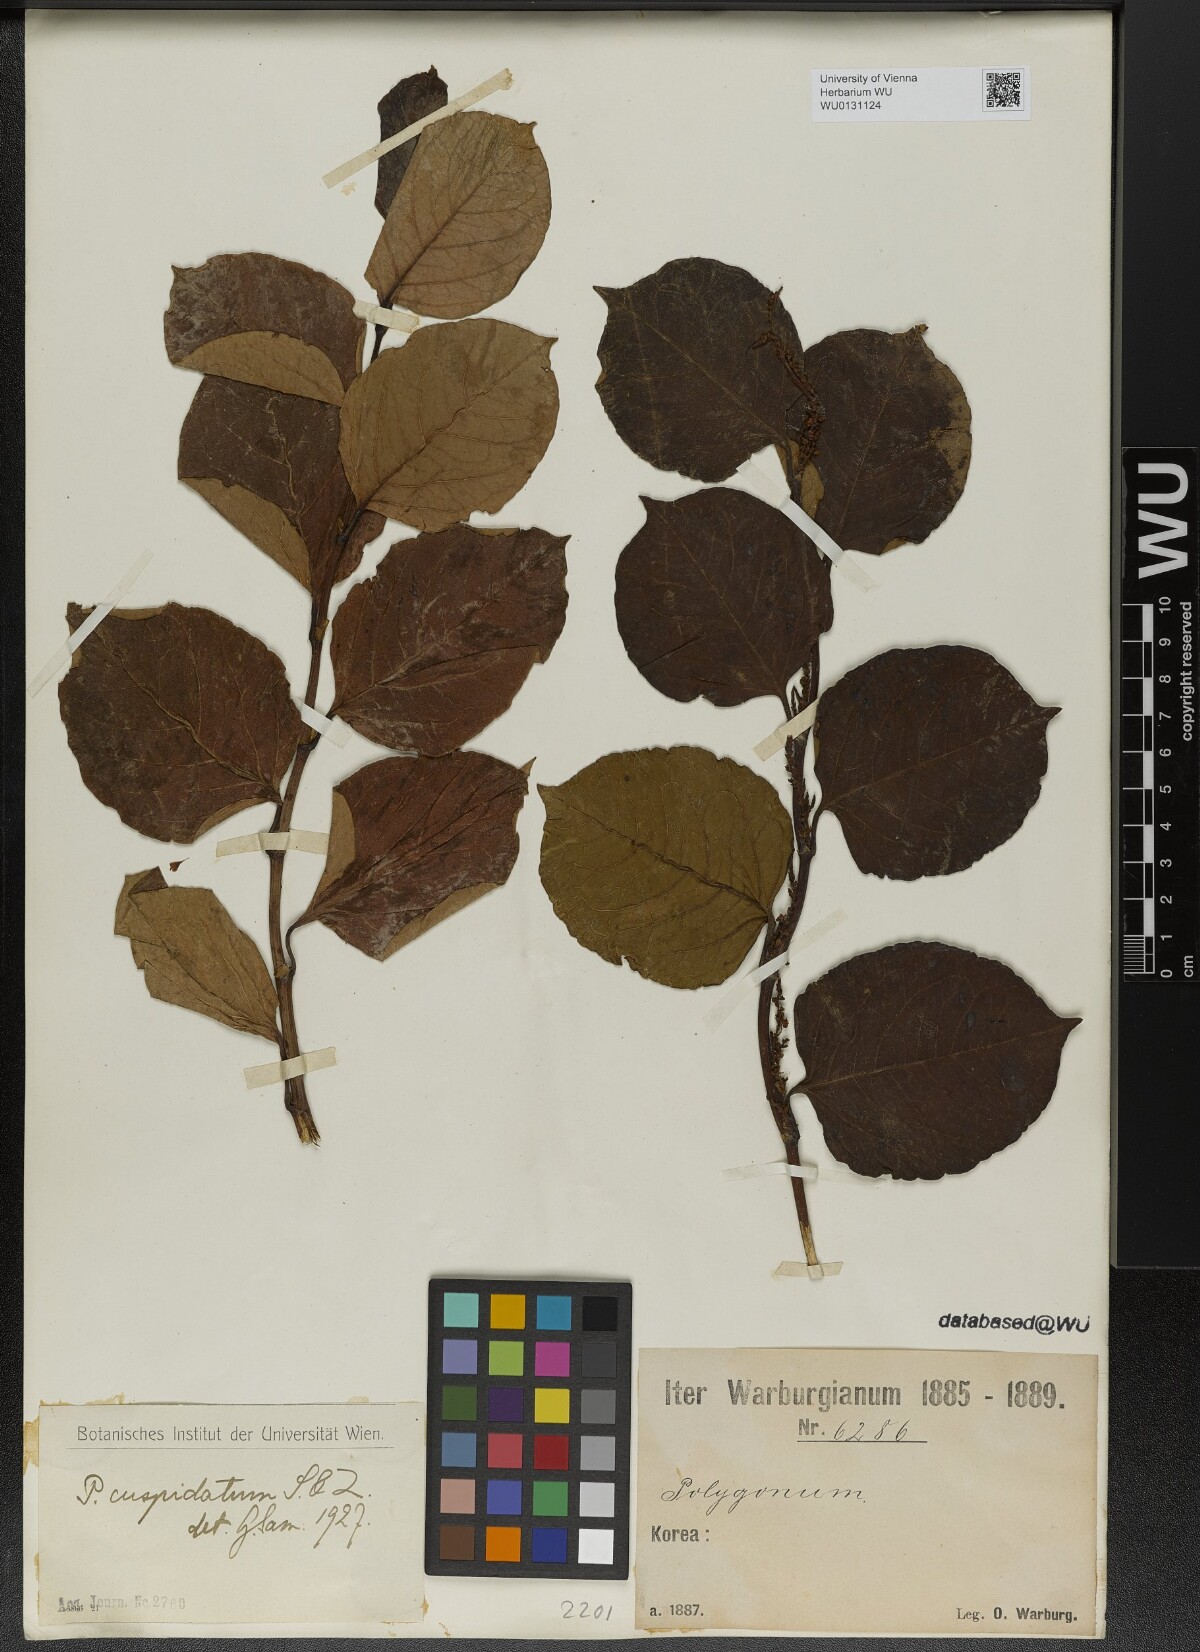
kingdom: Plantae
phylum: Tracheophyta
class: Magnoliopsida
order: Caryophyllales
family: Polygonaceae
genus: Reynoutria
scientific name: Reynoutria japonica
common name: Japanese knotweed
